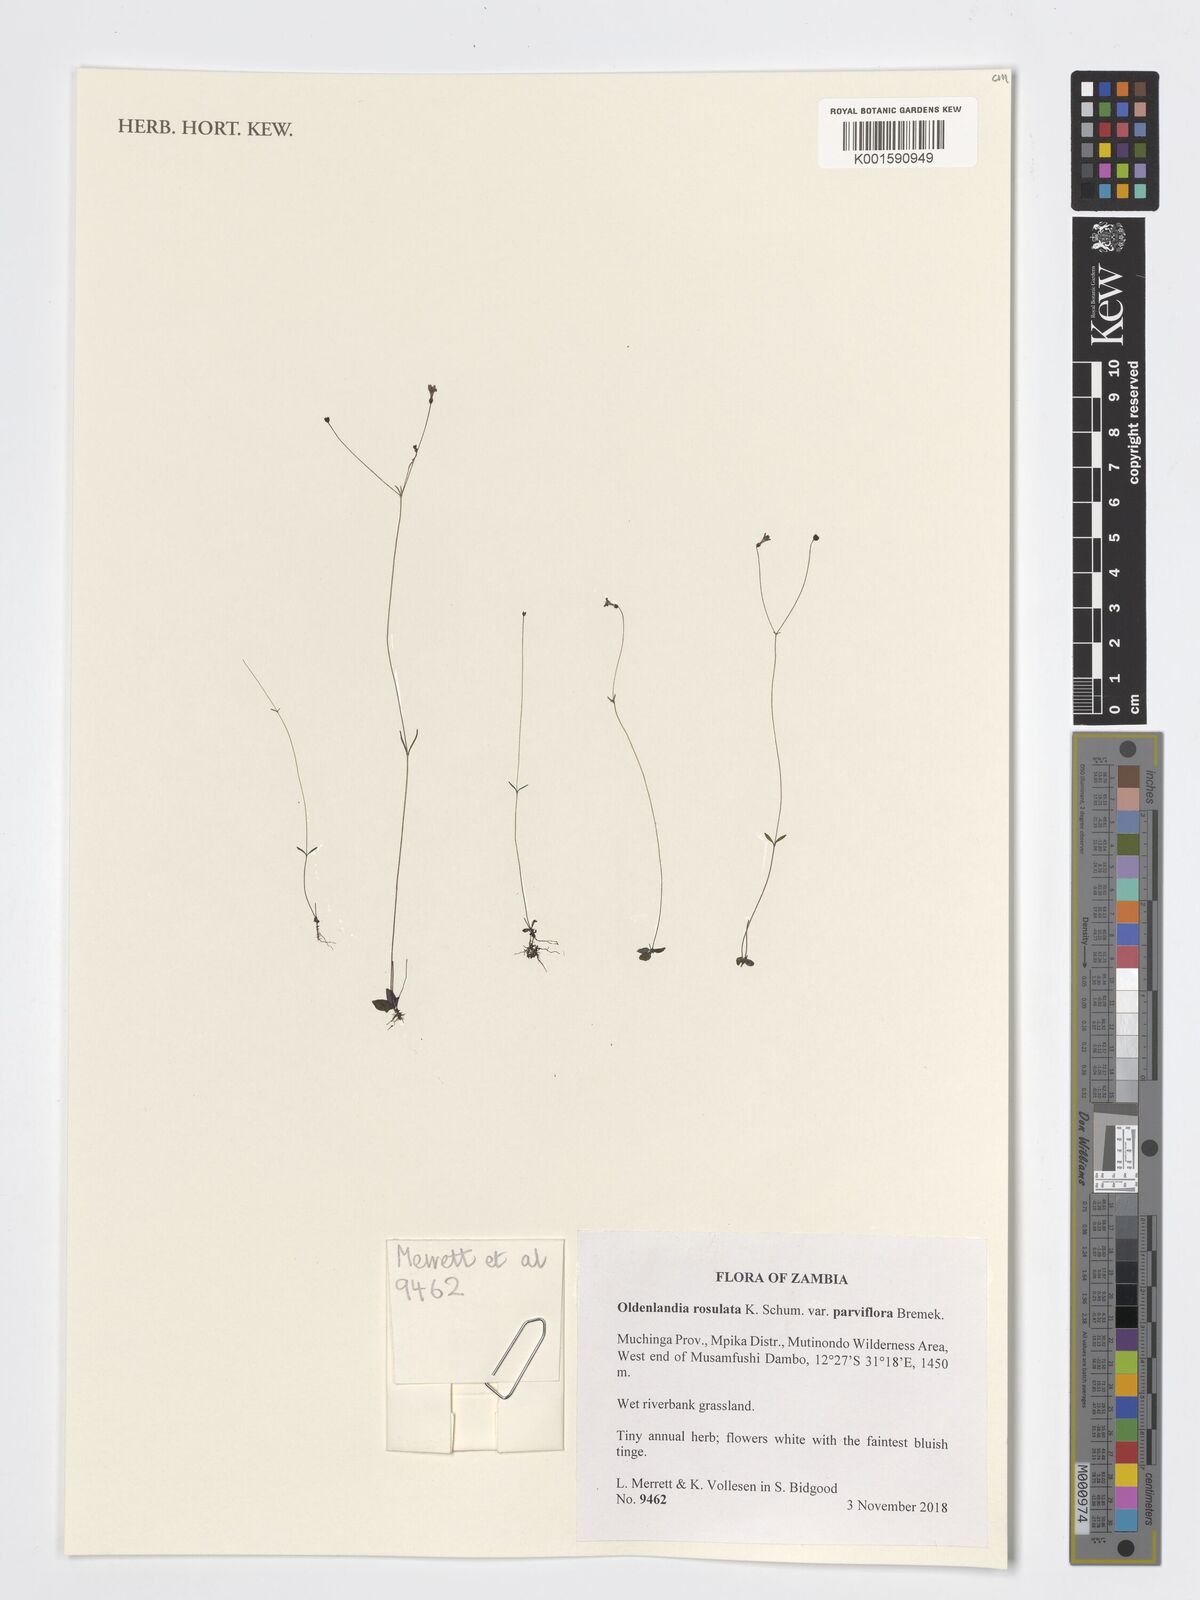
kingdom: Plantae
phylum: Tracheophyta
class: Magnoliopsida
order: Gentianales
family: Rubiaceae
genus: Oldenlandia
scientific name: Oldenlandia rosulata
